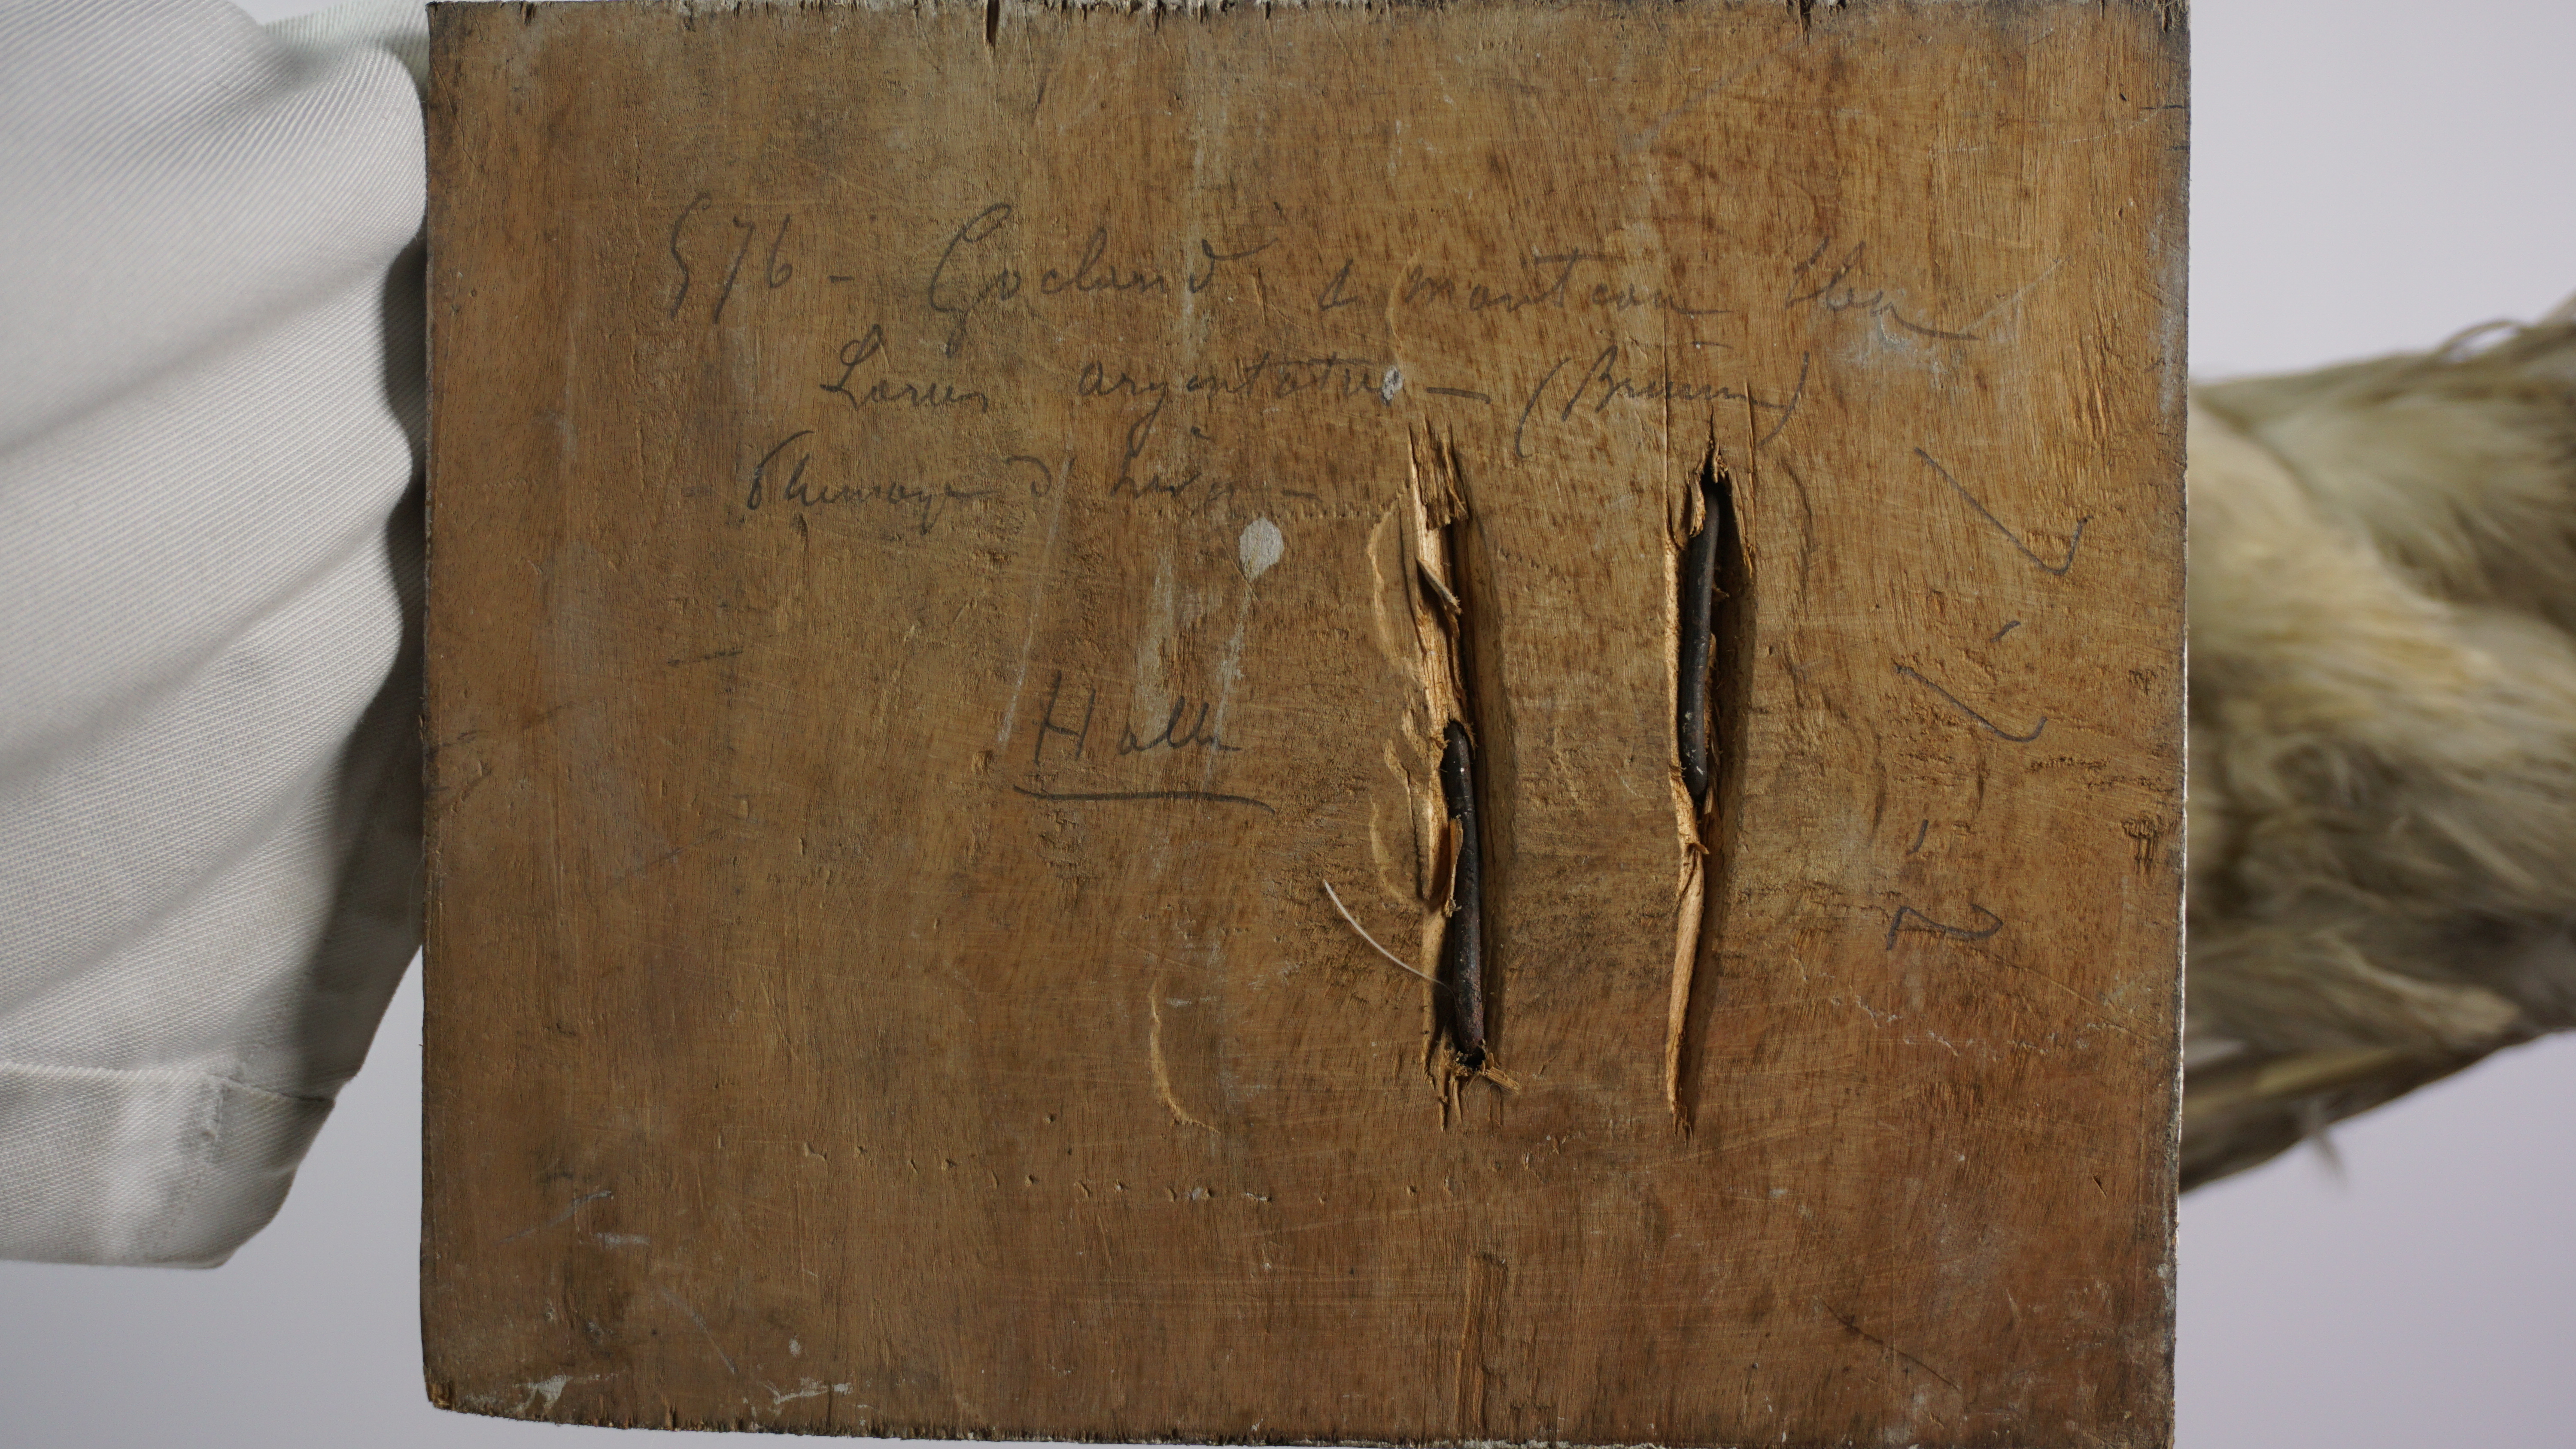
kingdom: Animalia
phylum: Chordata
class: Aves
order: Charadriiformes
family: Laridae
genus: Larus
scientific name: Larus argentatus
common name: Herring gull
